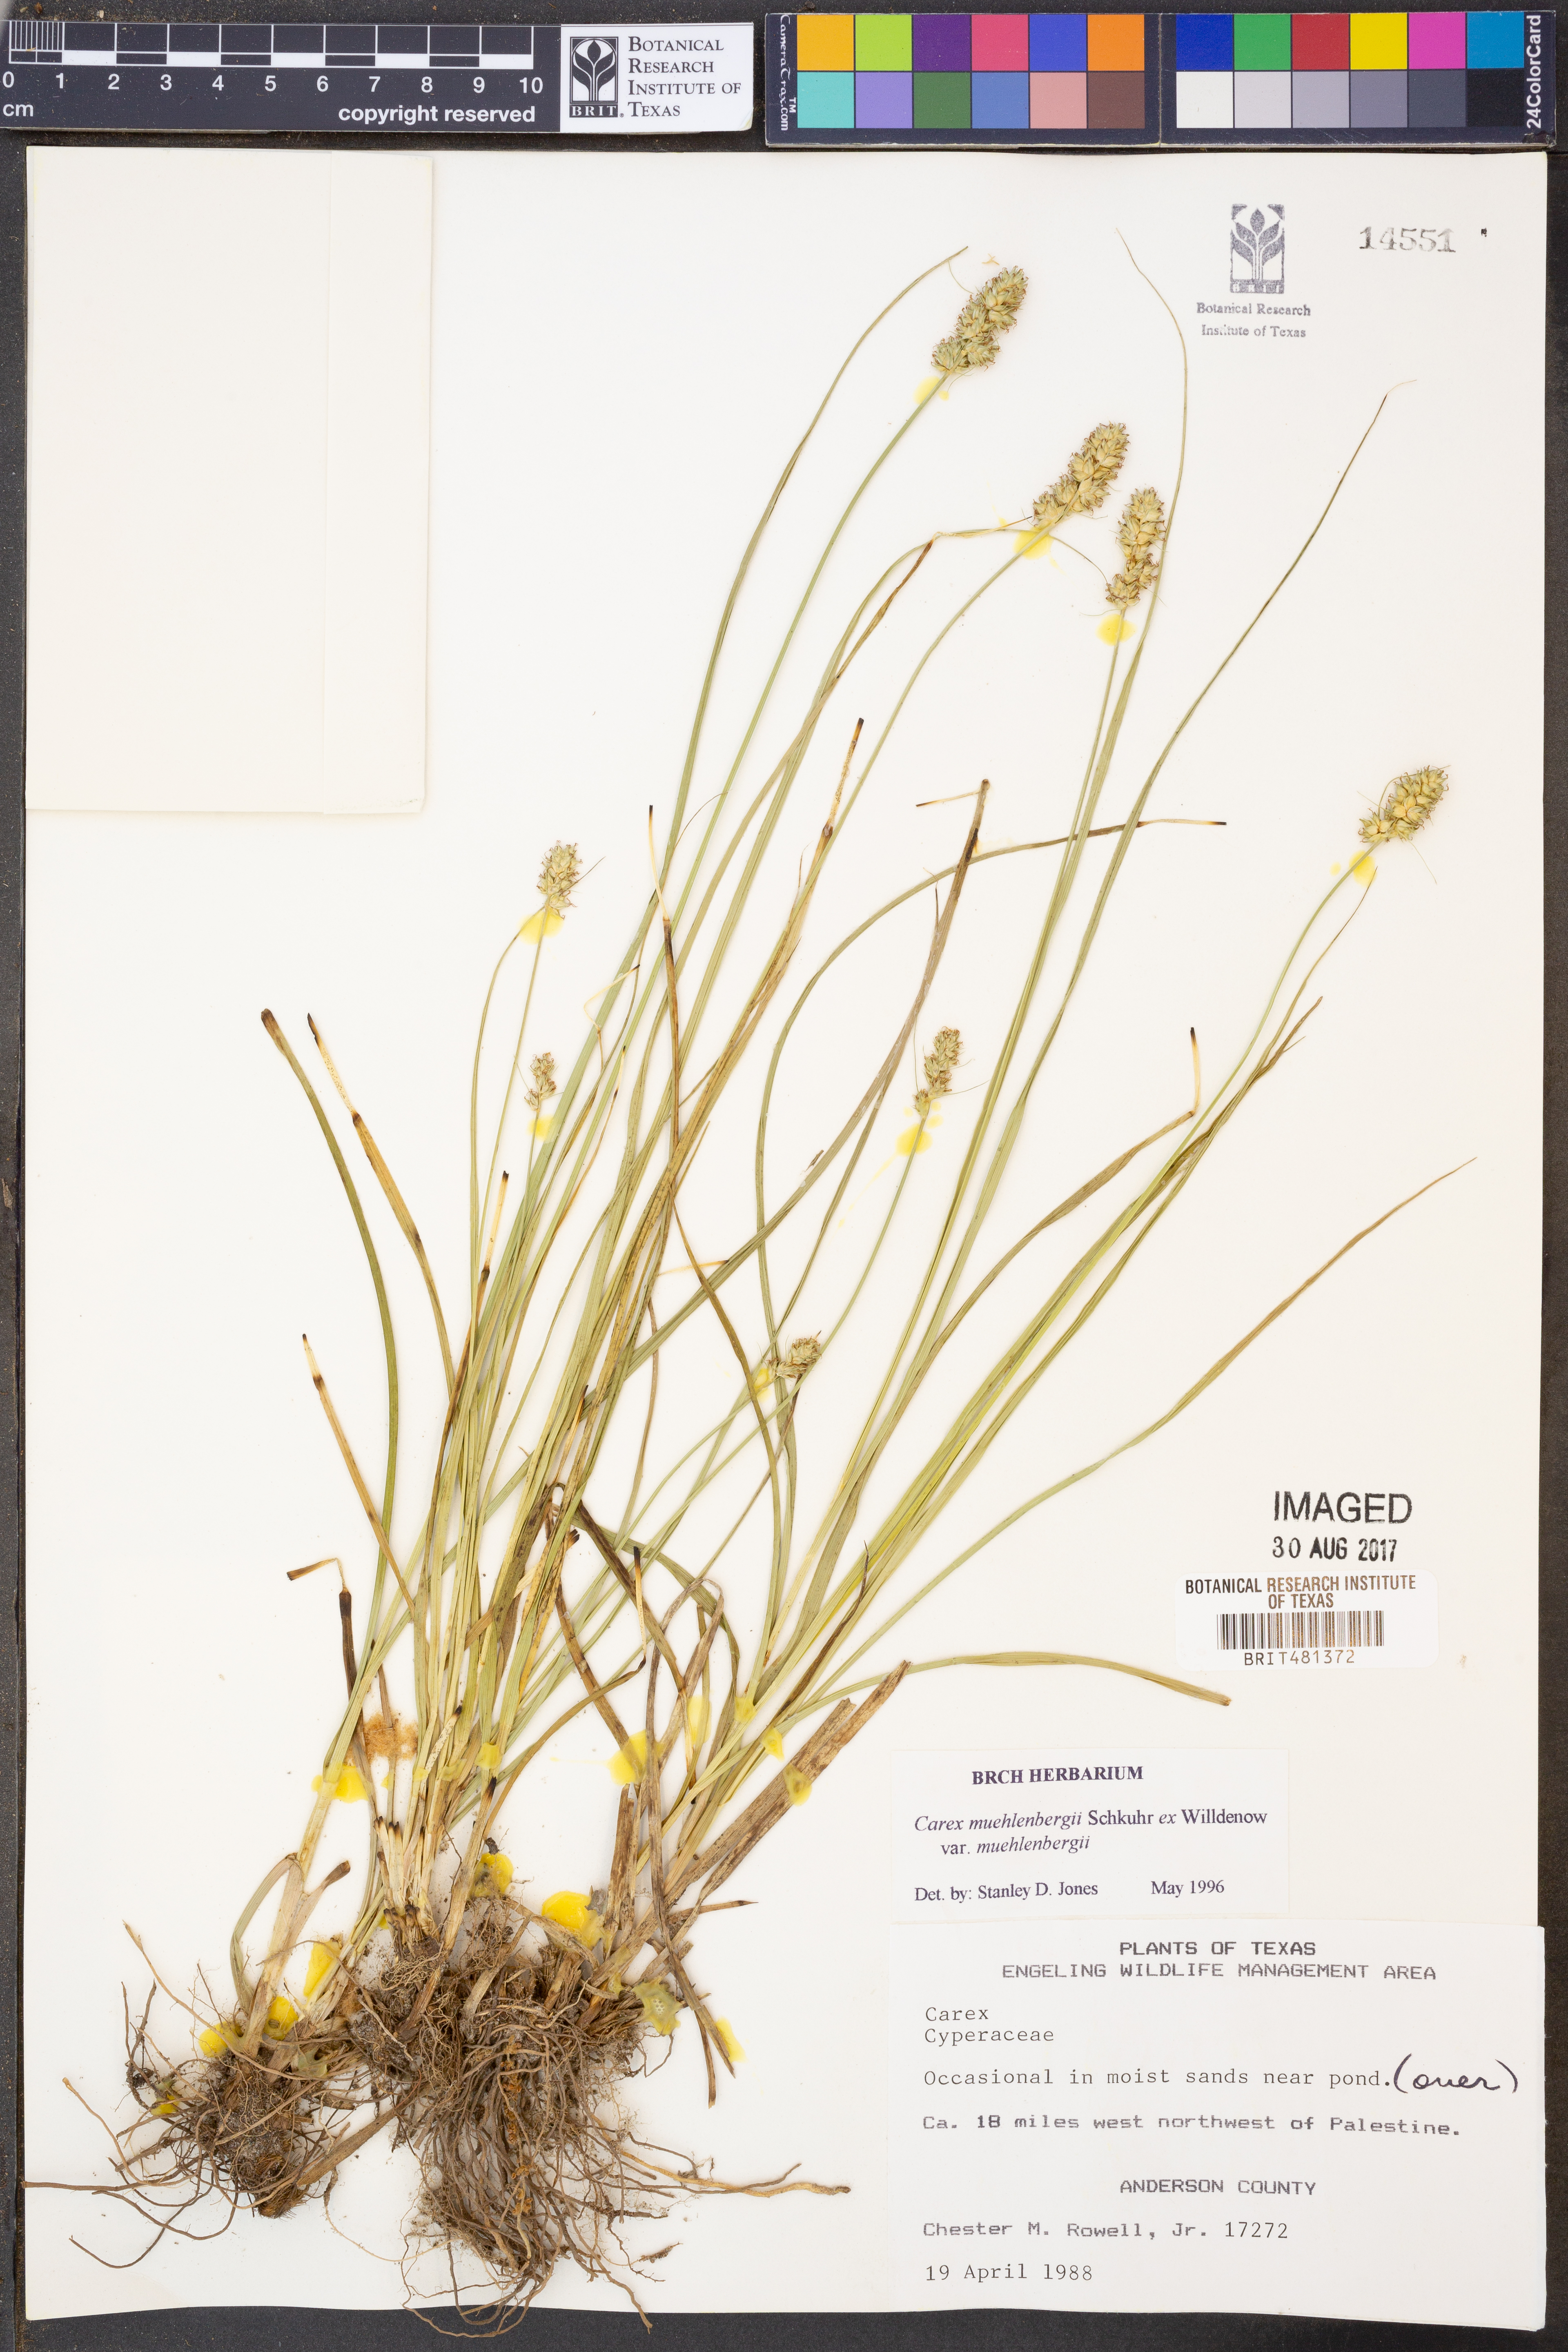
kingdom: Plantae
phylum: Tracheophyta
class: Liliopsida
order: Poales
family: Cyperaceae
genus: Carex
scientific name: Carex muehlenbergii
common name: Muhlenberg's bracted sedge
